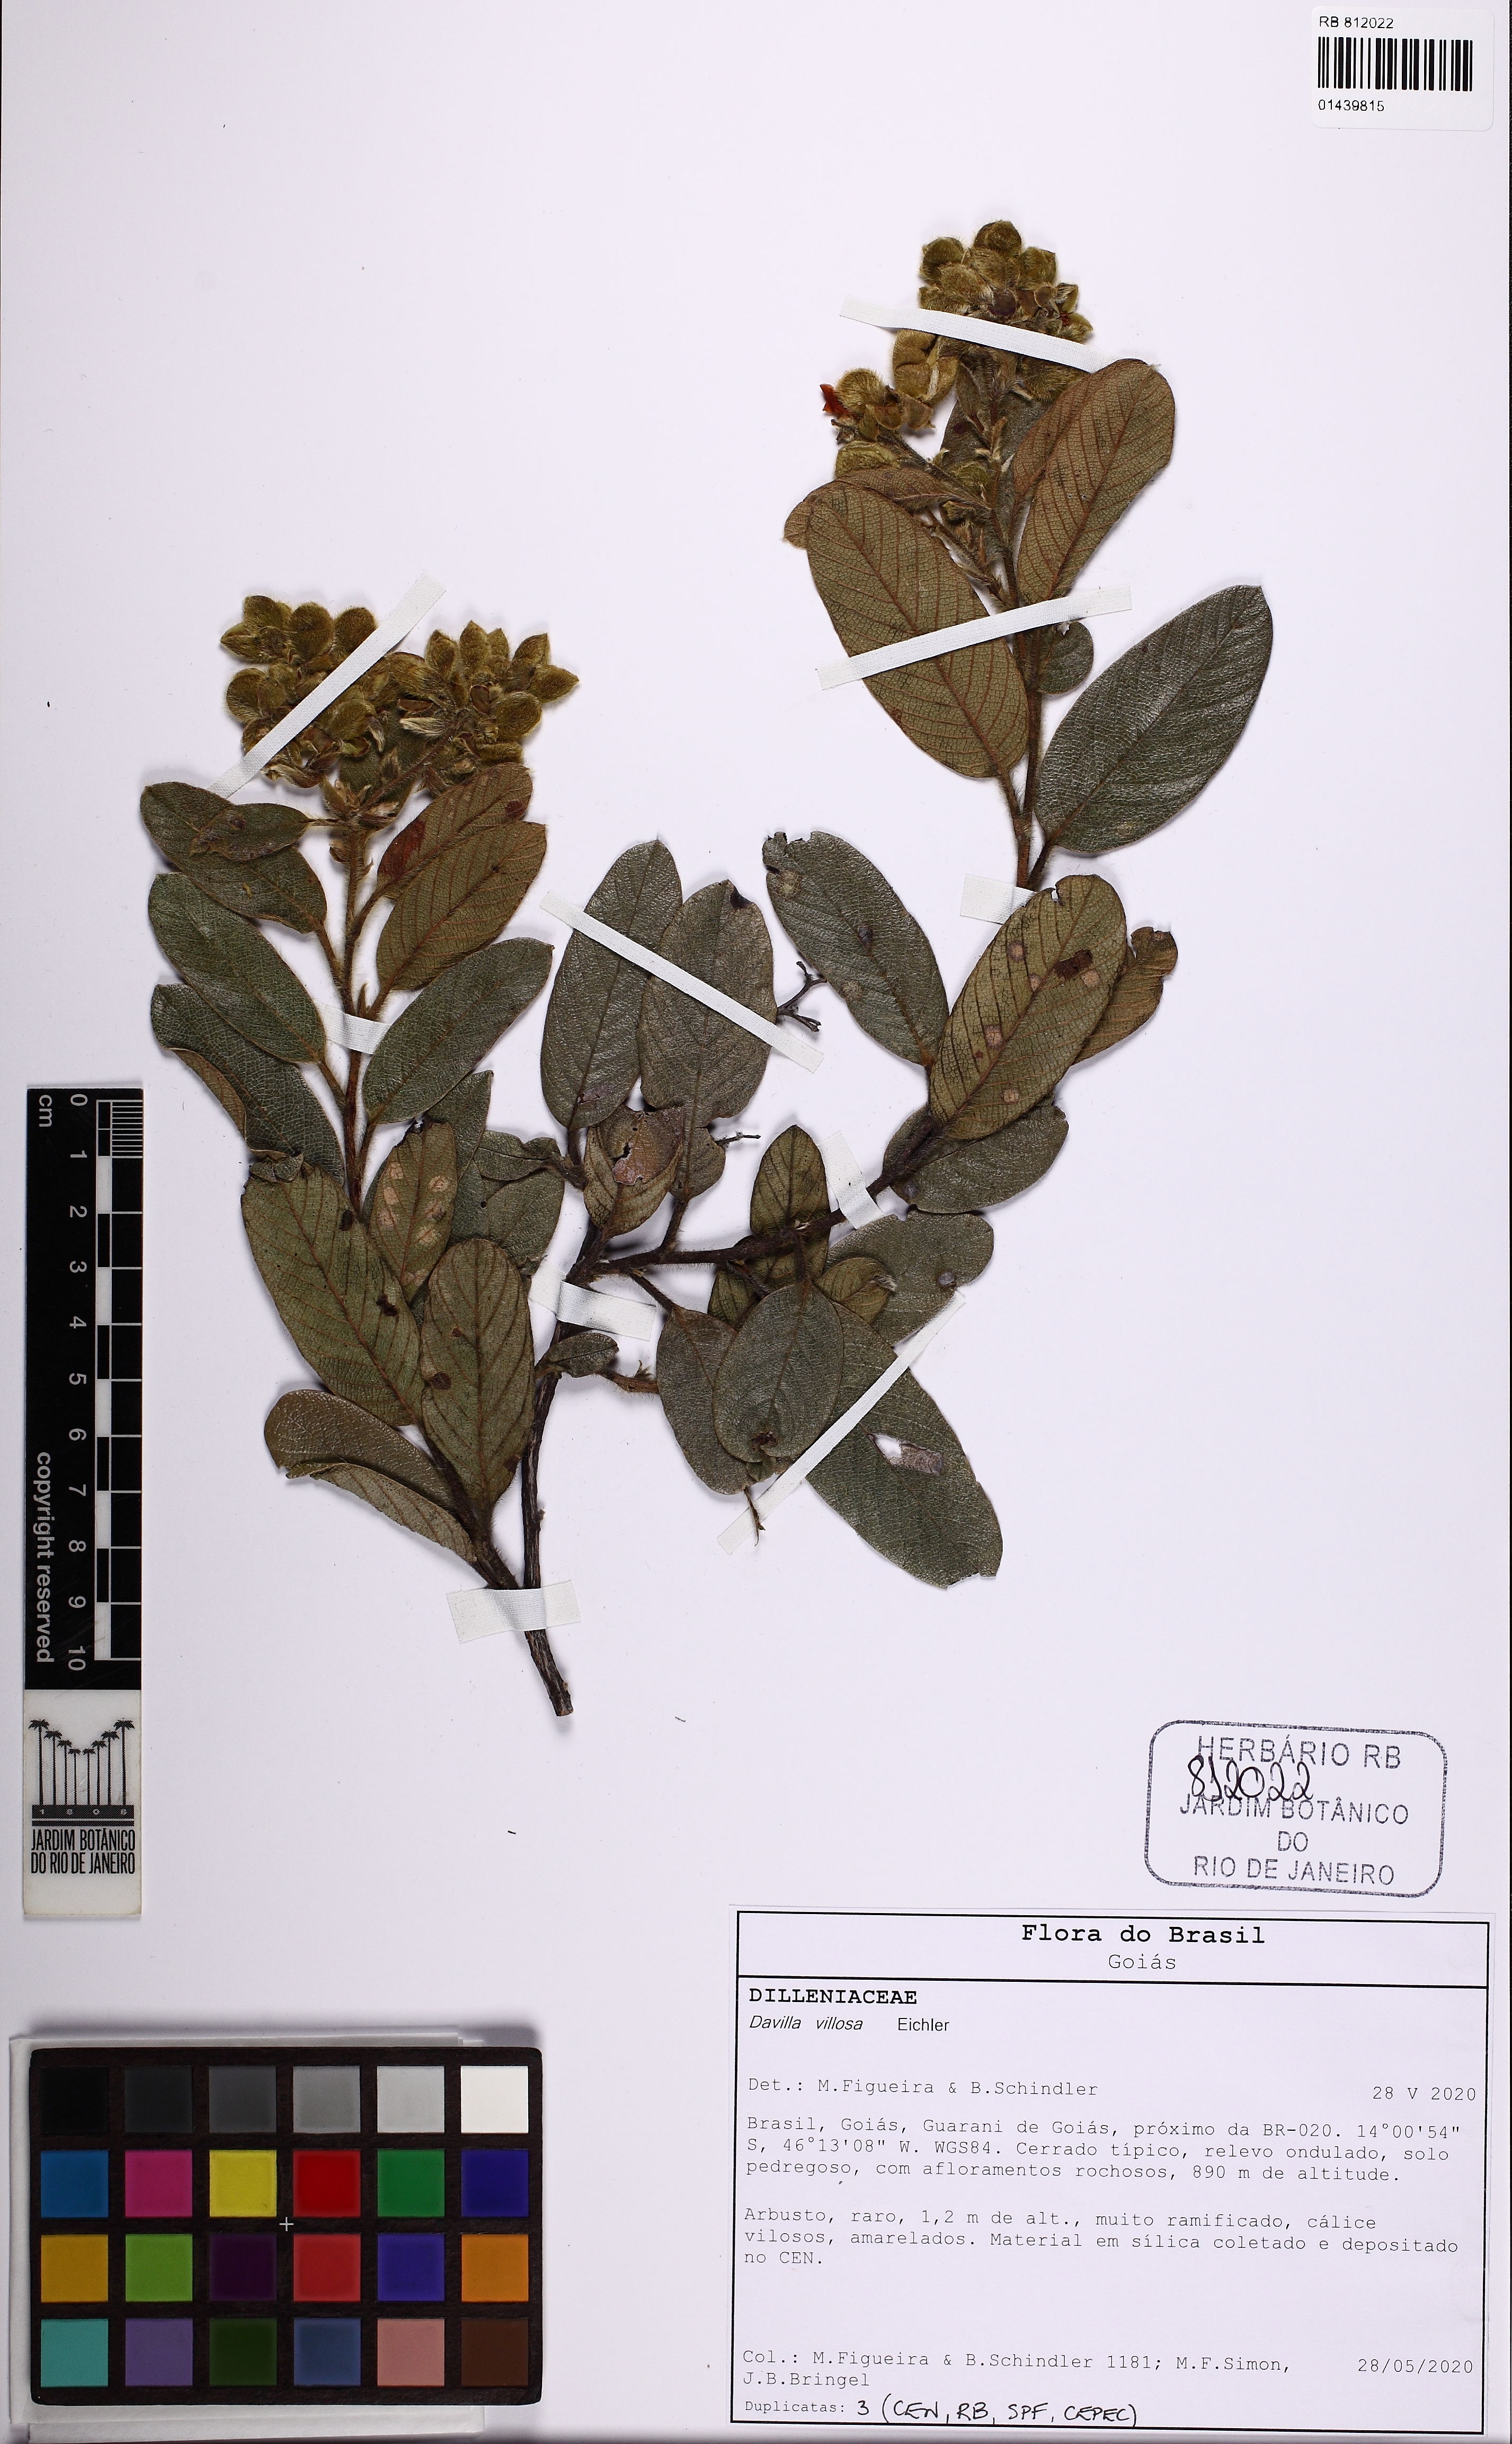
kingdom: Plantae
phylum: Tracheophyta
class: Magnoliopsida
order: Dilleniales
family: Dilleniaceae
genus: Davilla
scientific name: Davilla elliptica
